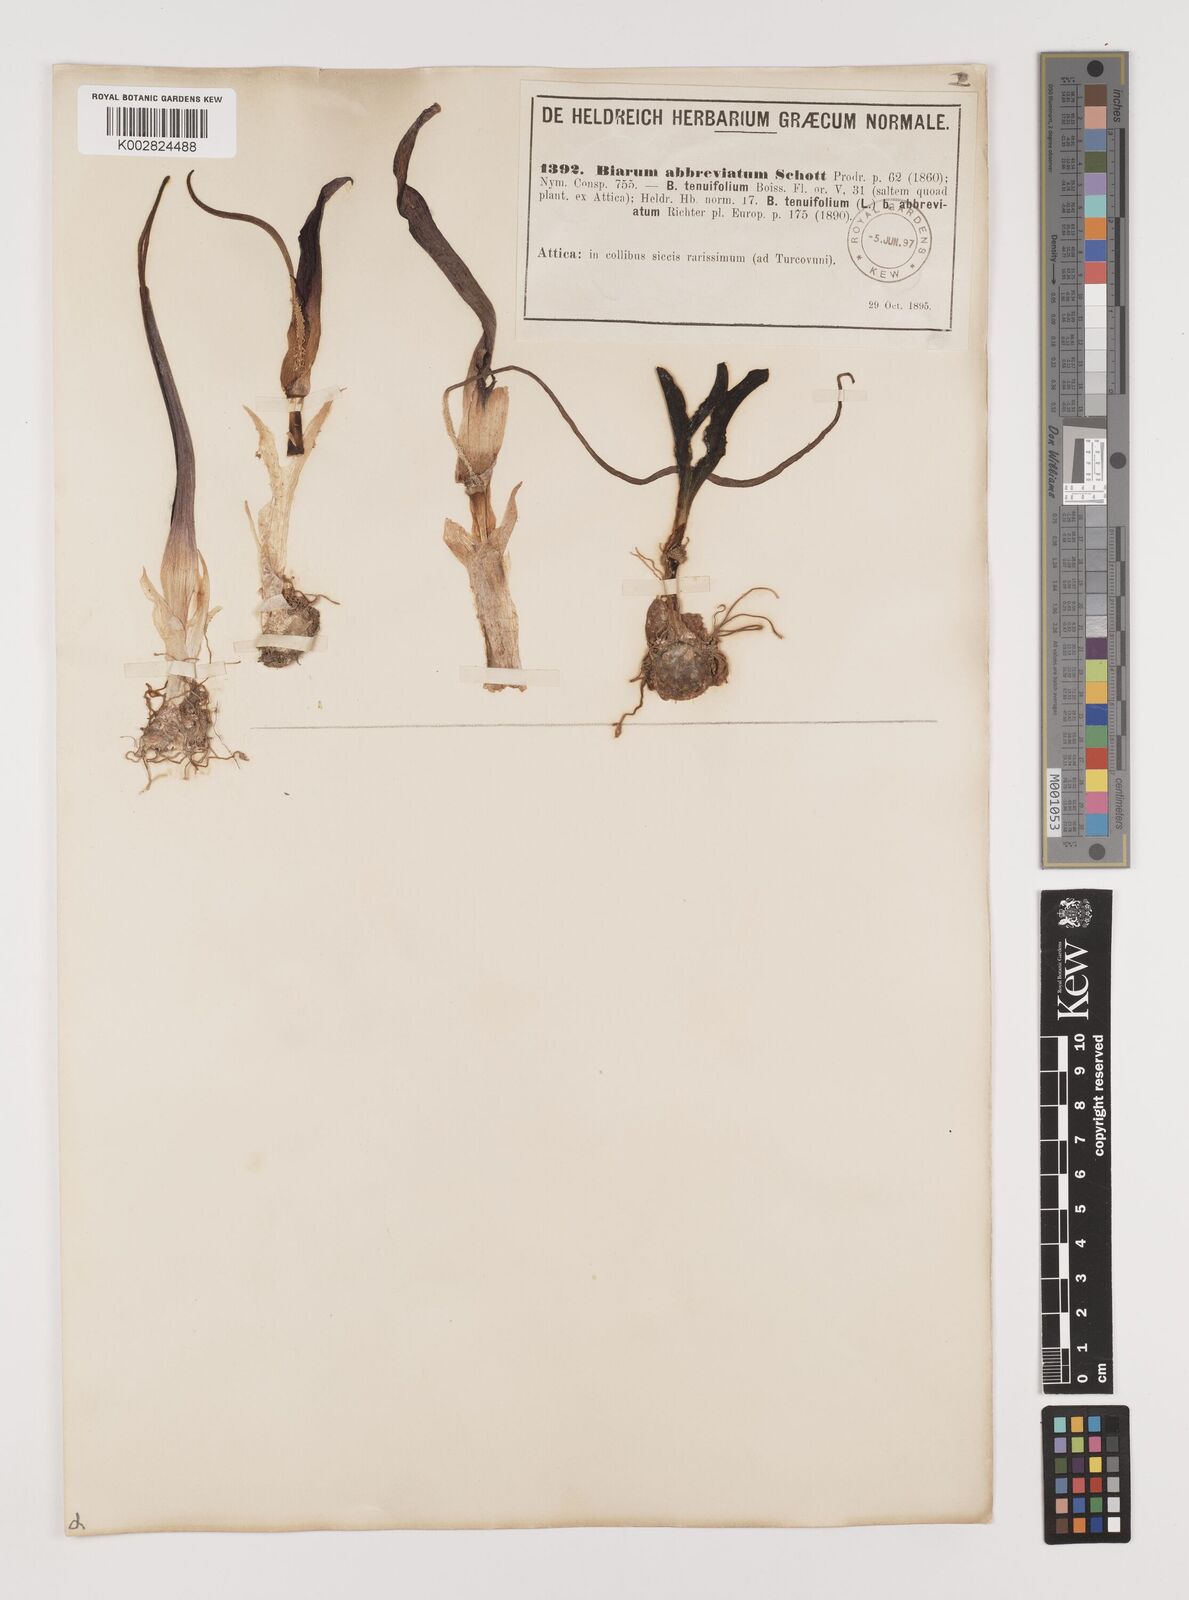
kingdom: Plantae
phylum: Tracheophyta
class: Liliopsida
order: Alismatales
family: Araceae
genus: Biarum
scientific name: Biarum tenuifolium
